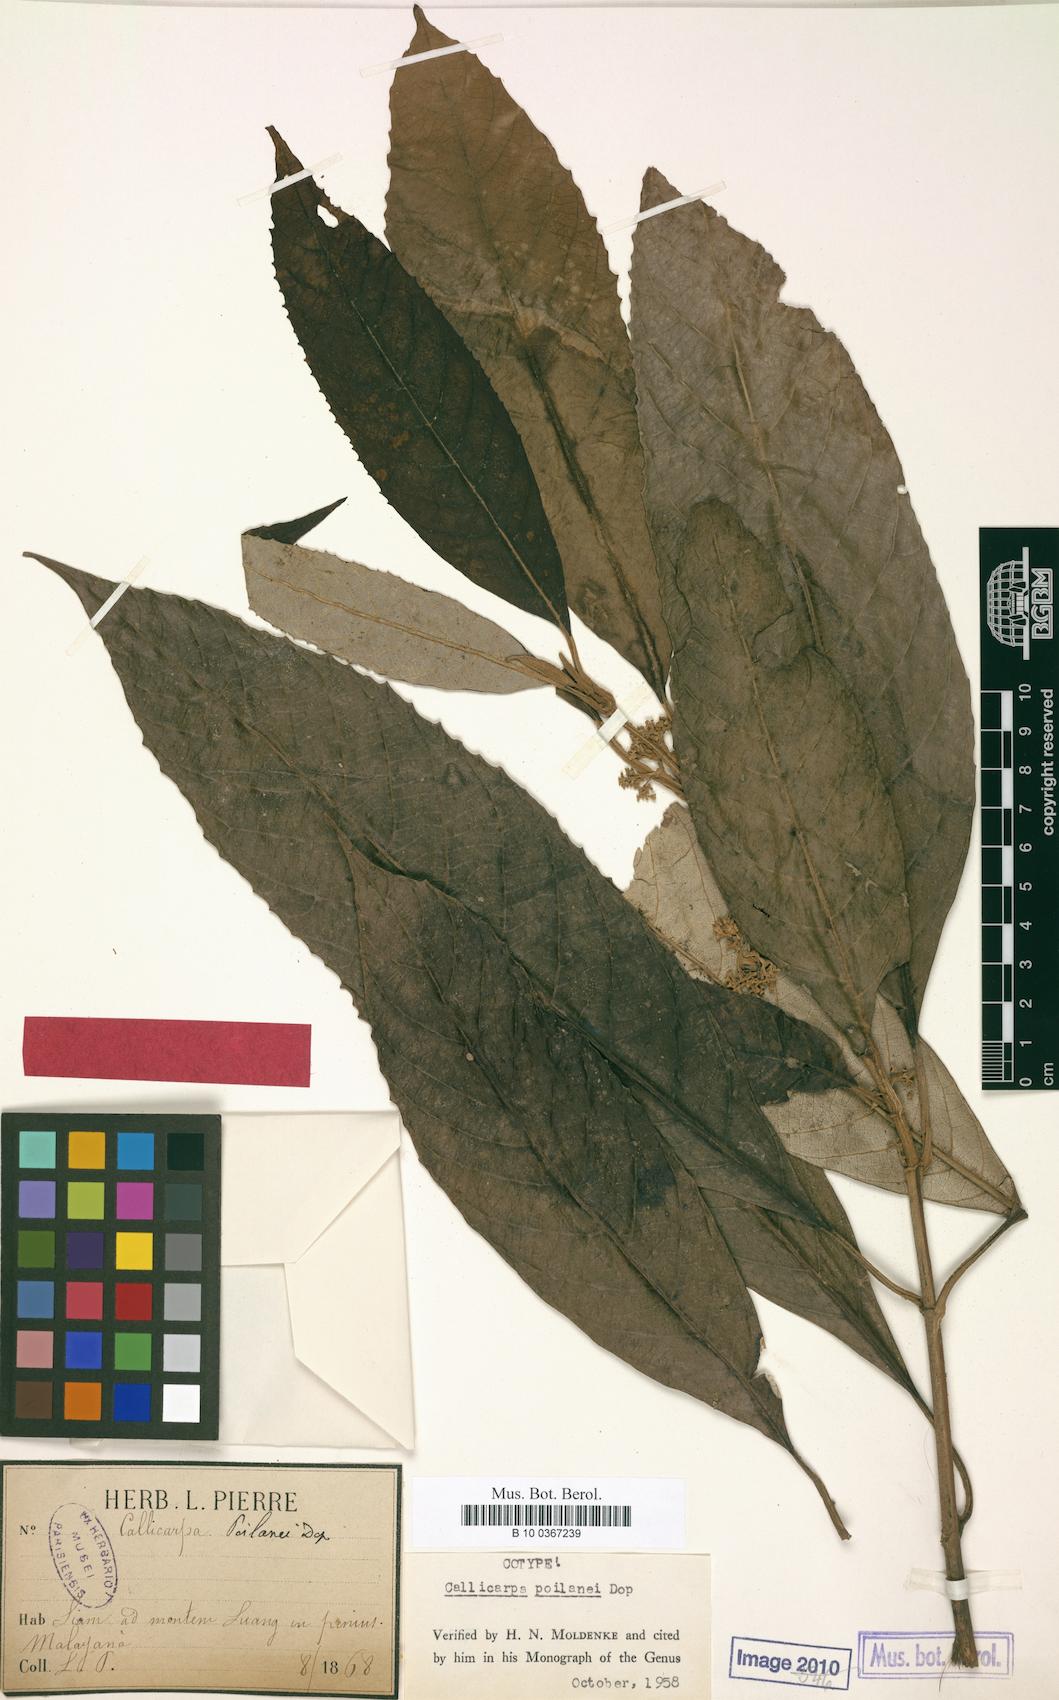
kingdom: Plantae
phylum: Tracheophyta
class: Magnoliopsida
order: Lamiales
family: Lamiaceae
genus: Callicarpa
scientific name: Callicarpa angustifolia
